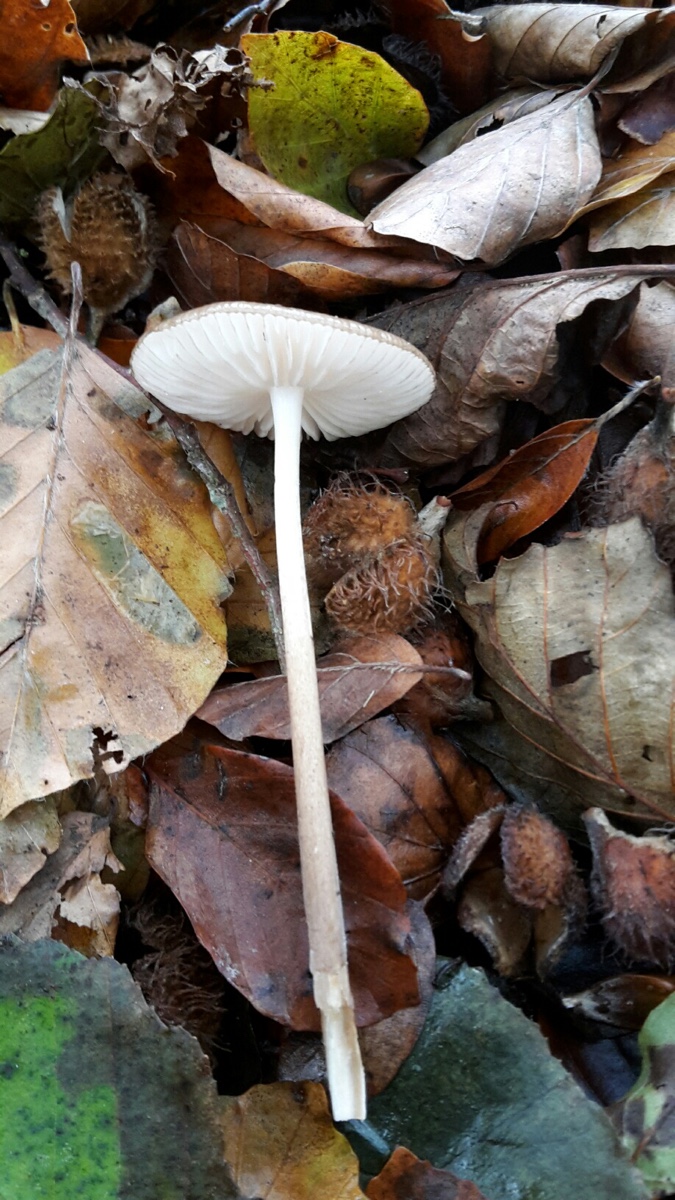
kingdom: Fungi
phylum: Basidiomycota
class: Agaricomycetes
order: Agaricales
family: Physalacriaceae
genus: Hymenopellis
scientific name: Hymenopellis radicata
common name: almindelig pælerodshat
